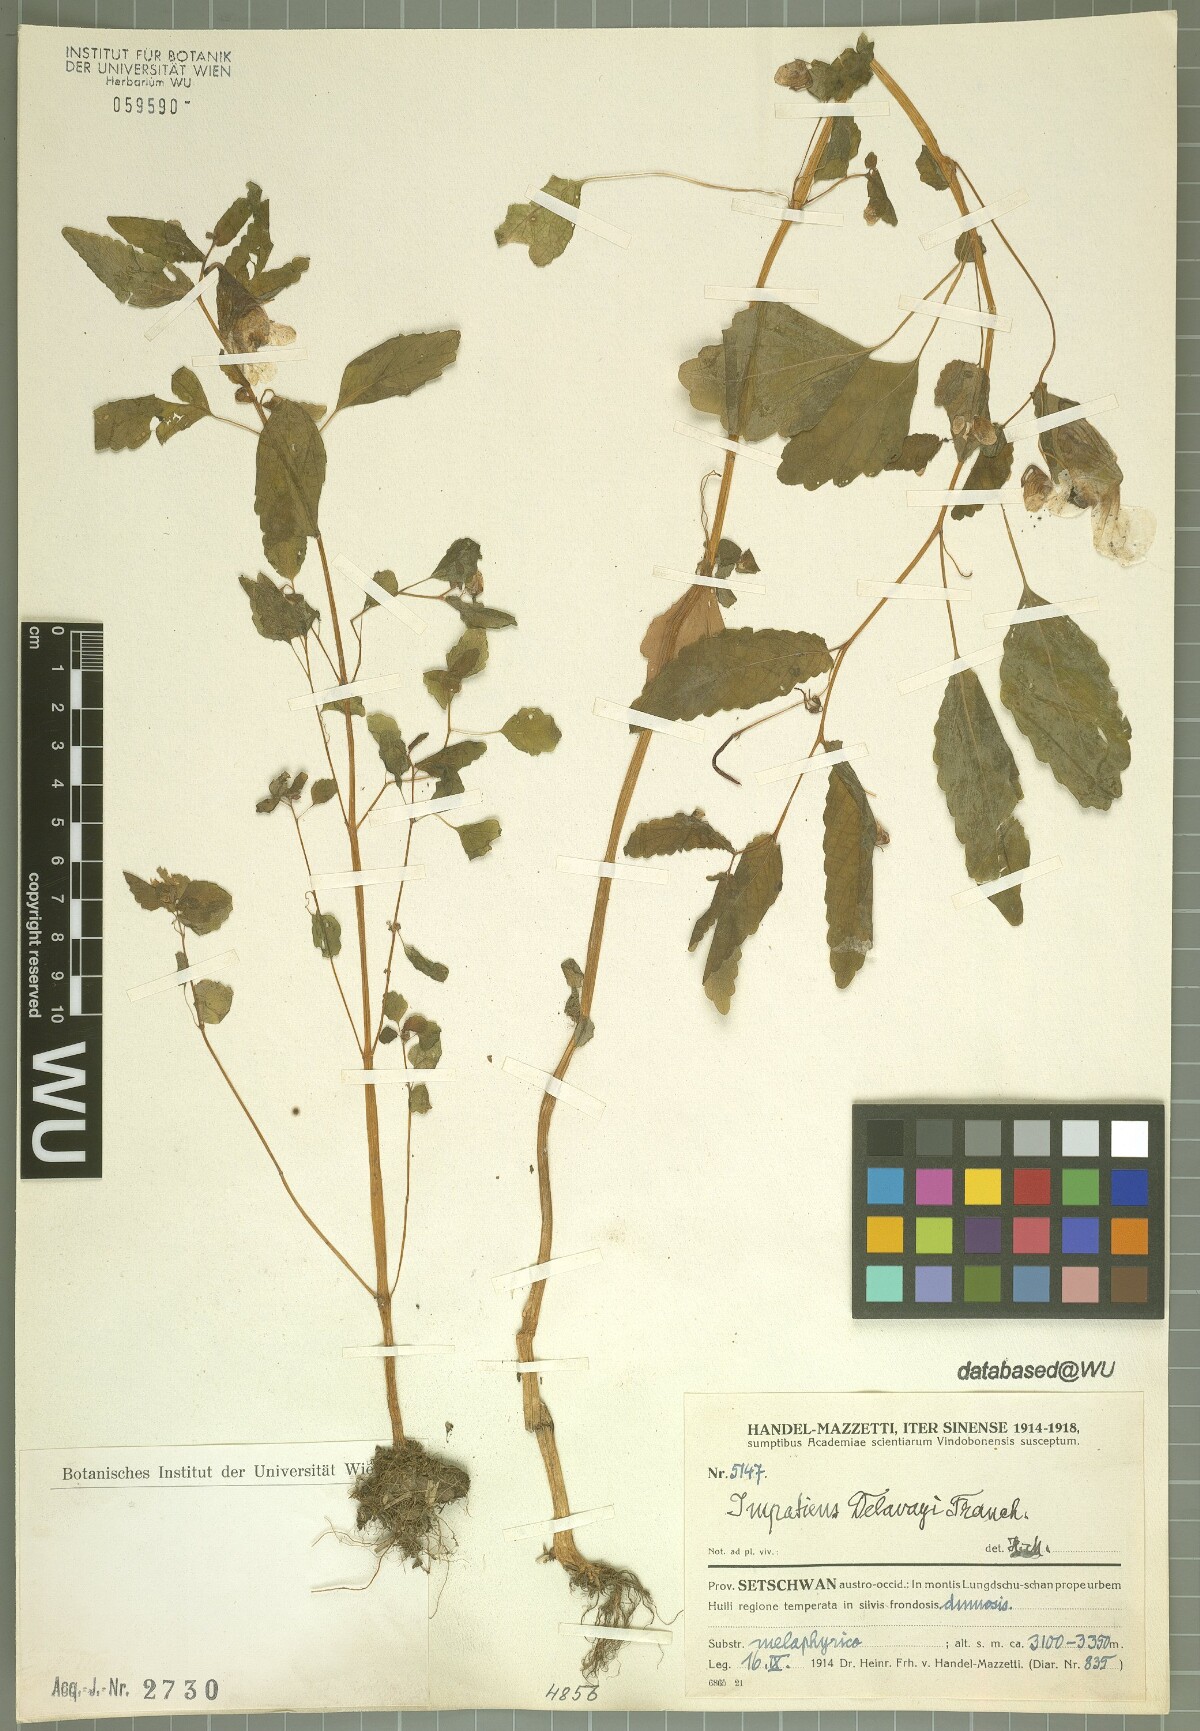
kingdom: Plantae
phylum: Tracheophyta
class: Magnoliopsida
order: Ericales
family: Balsaminaceae
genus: Impatiens
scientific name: Impatiens delavayi
